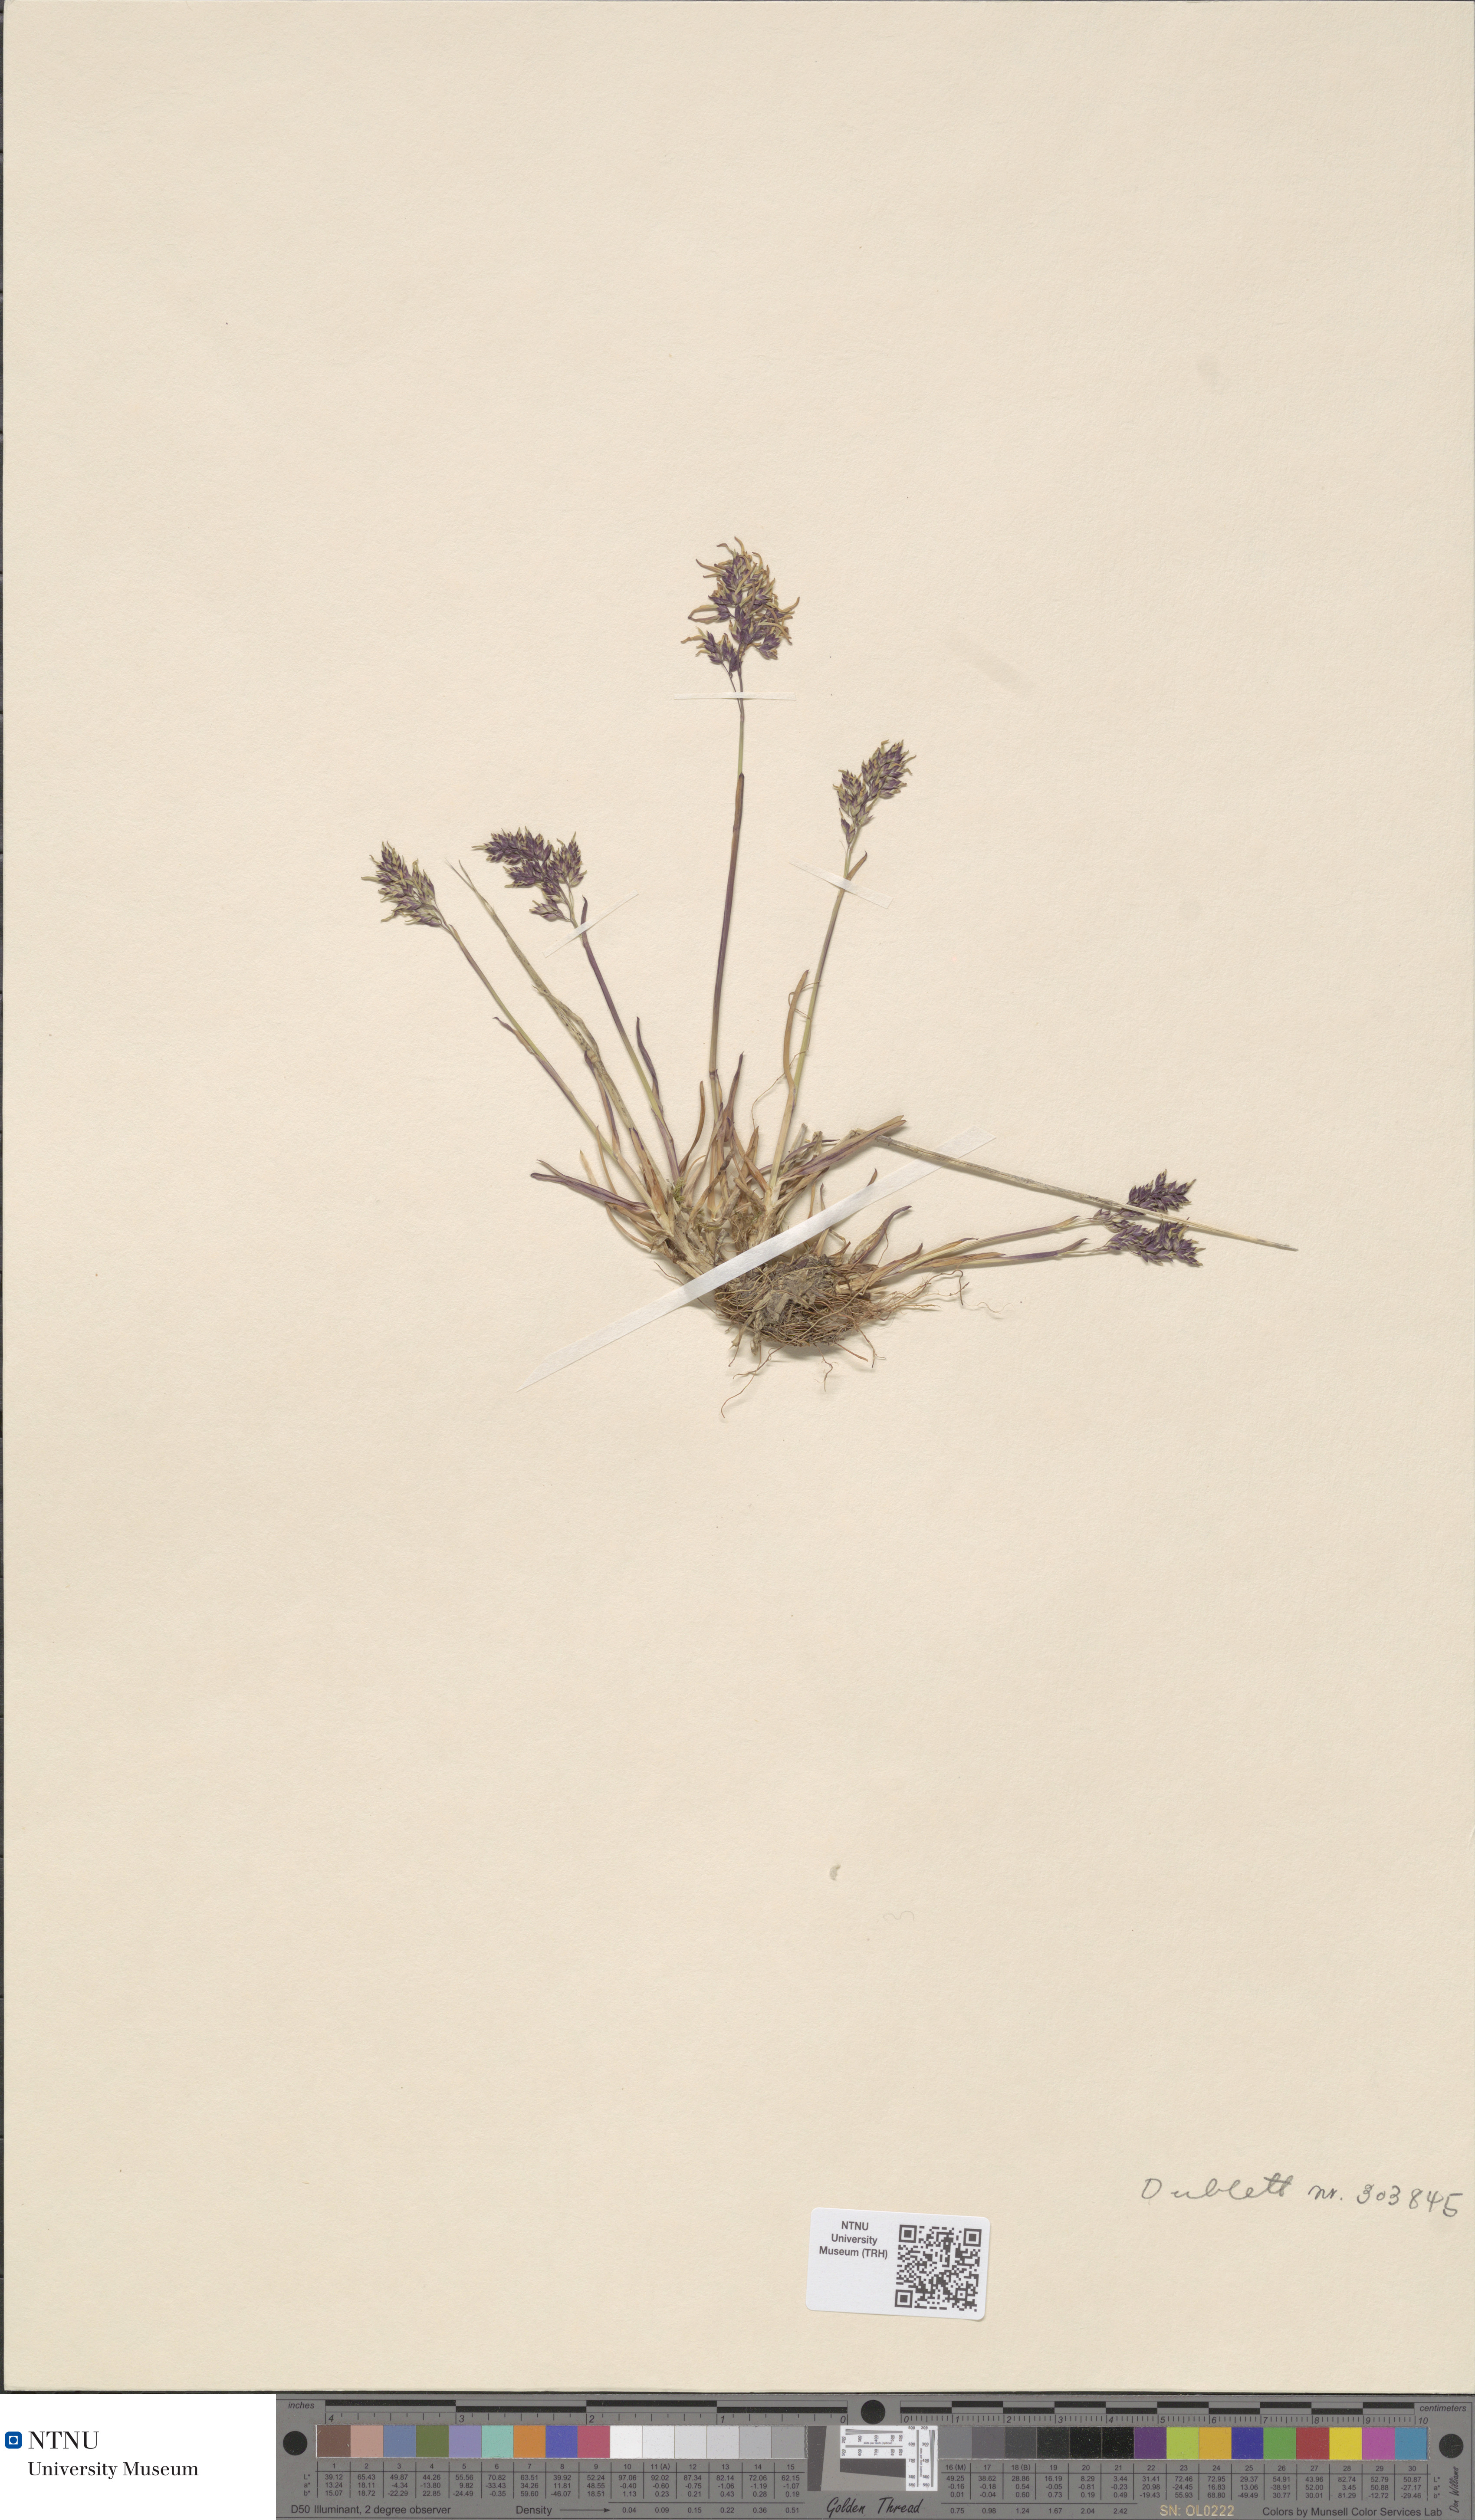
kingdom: Plantae
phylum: Tracheophyta
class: Liliopsida
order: Poales
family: Poaceae
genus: Poa
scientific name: Poa alpina
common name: Alpine bluegrass
